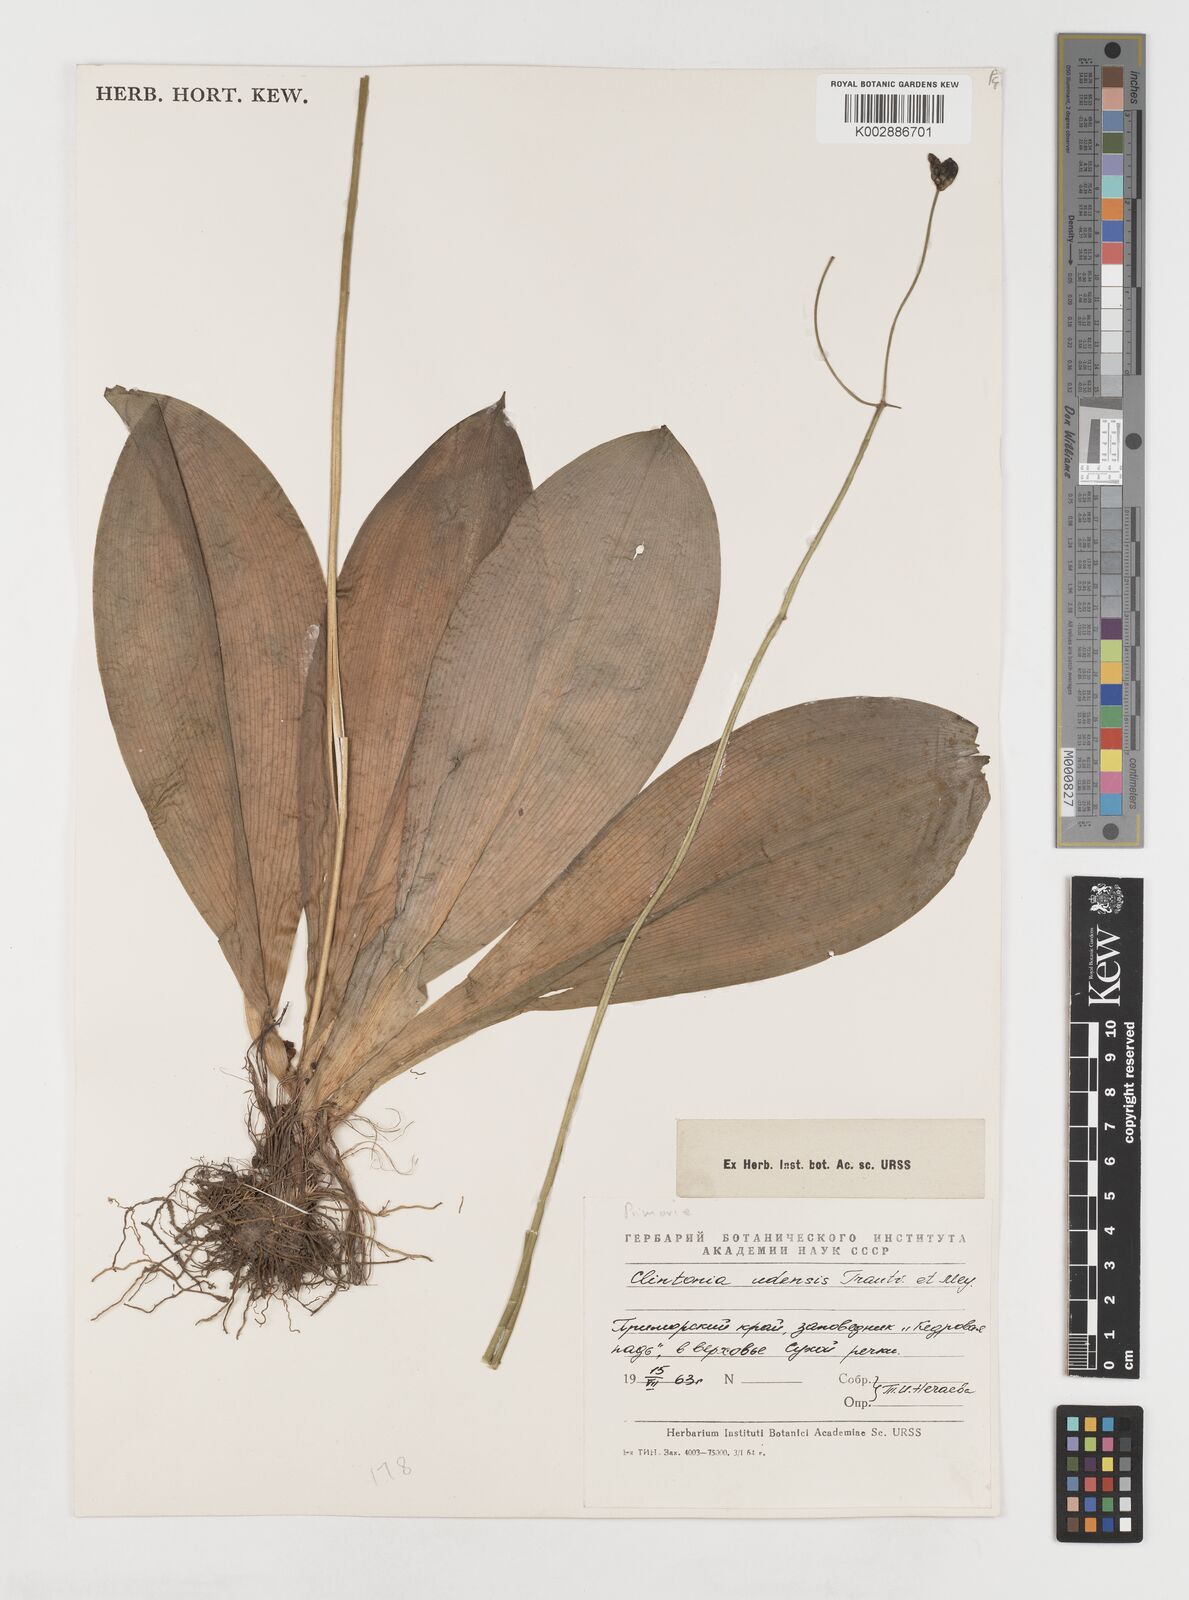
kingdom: Plantae
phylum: Tracheophyta
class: Liliopsida
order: Liliales
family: Liliaceae
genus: Clintonia
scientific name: Clintonia udensis
